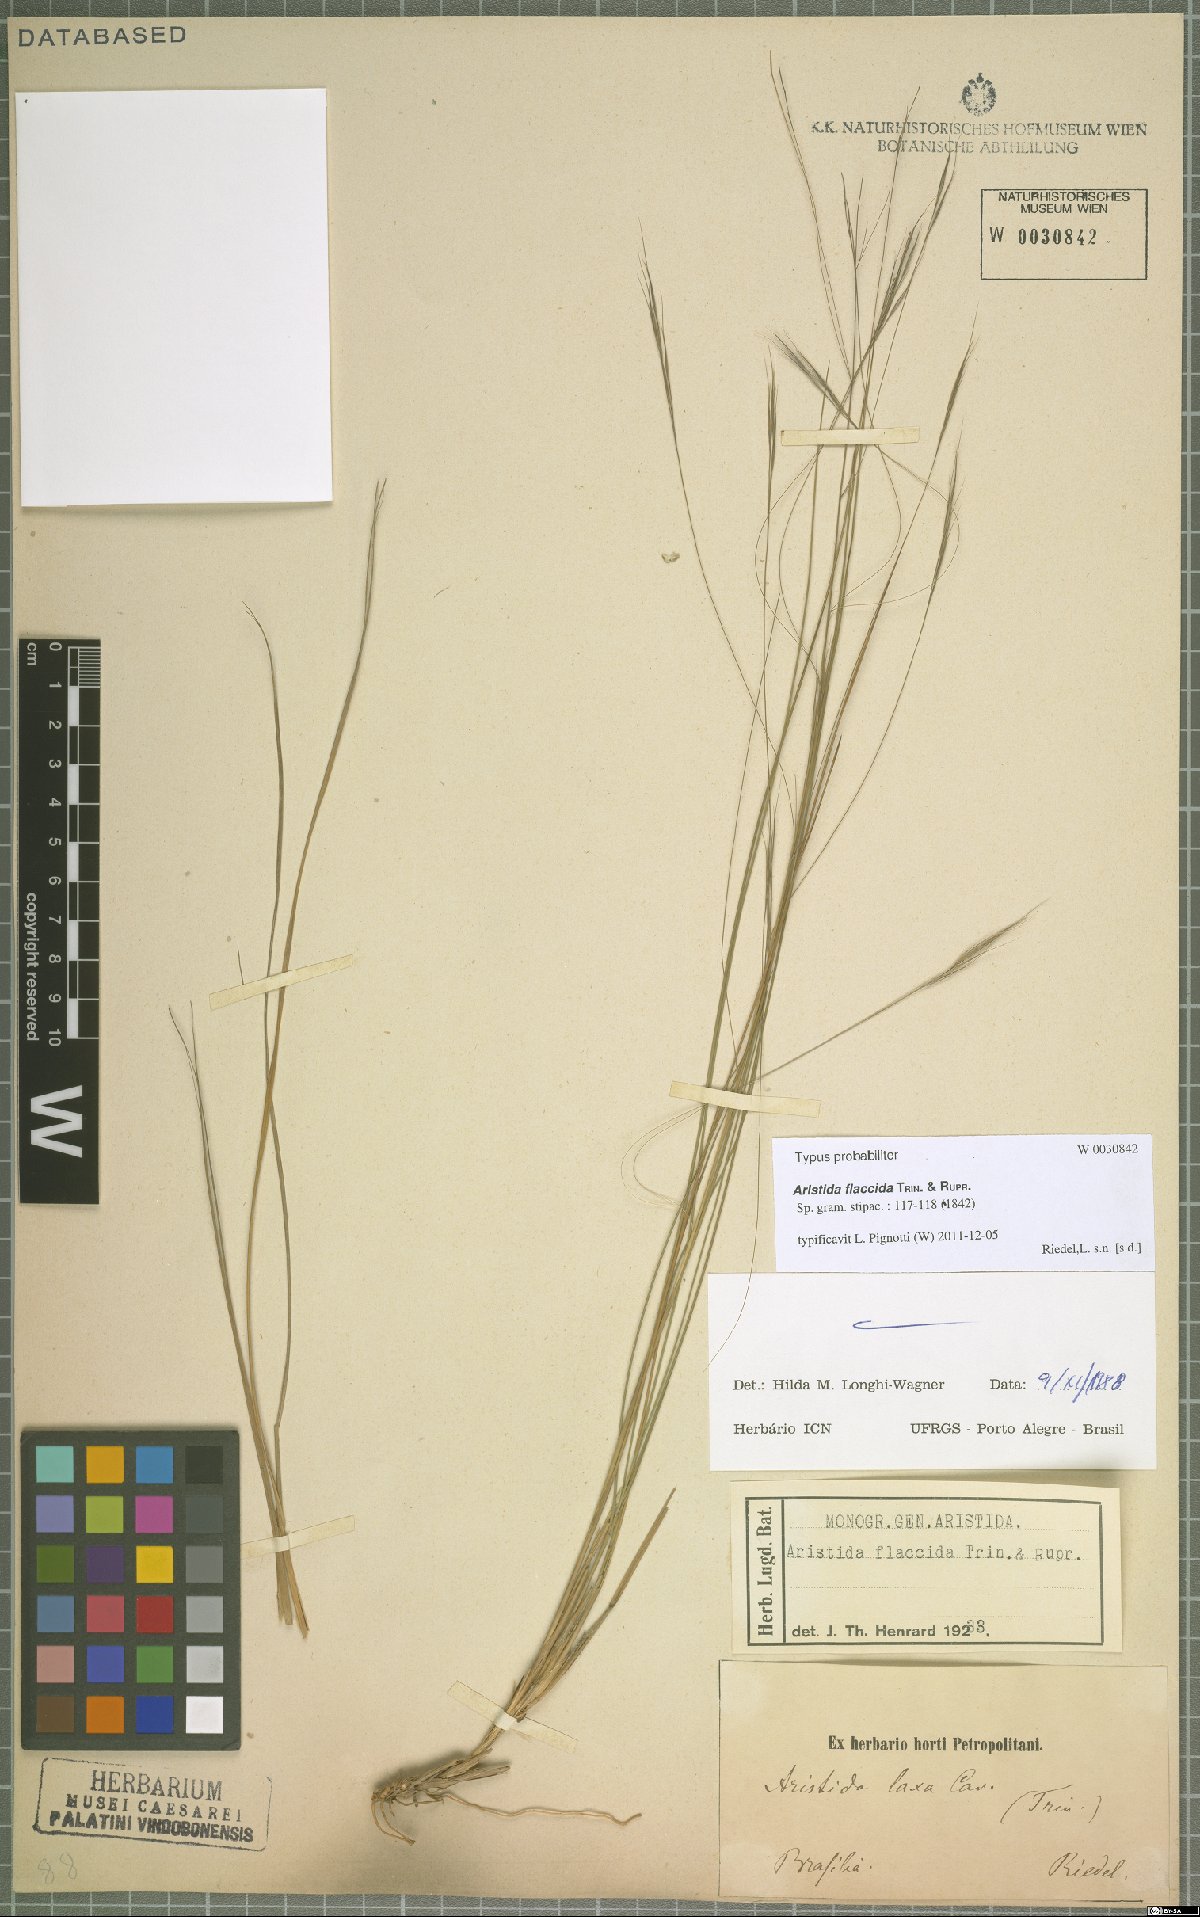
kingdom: Plantae
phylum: Tracheophyta
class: Liliopsida
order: Poales
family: Poaceae
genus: Aristida
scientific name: Aristida flaccida
